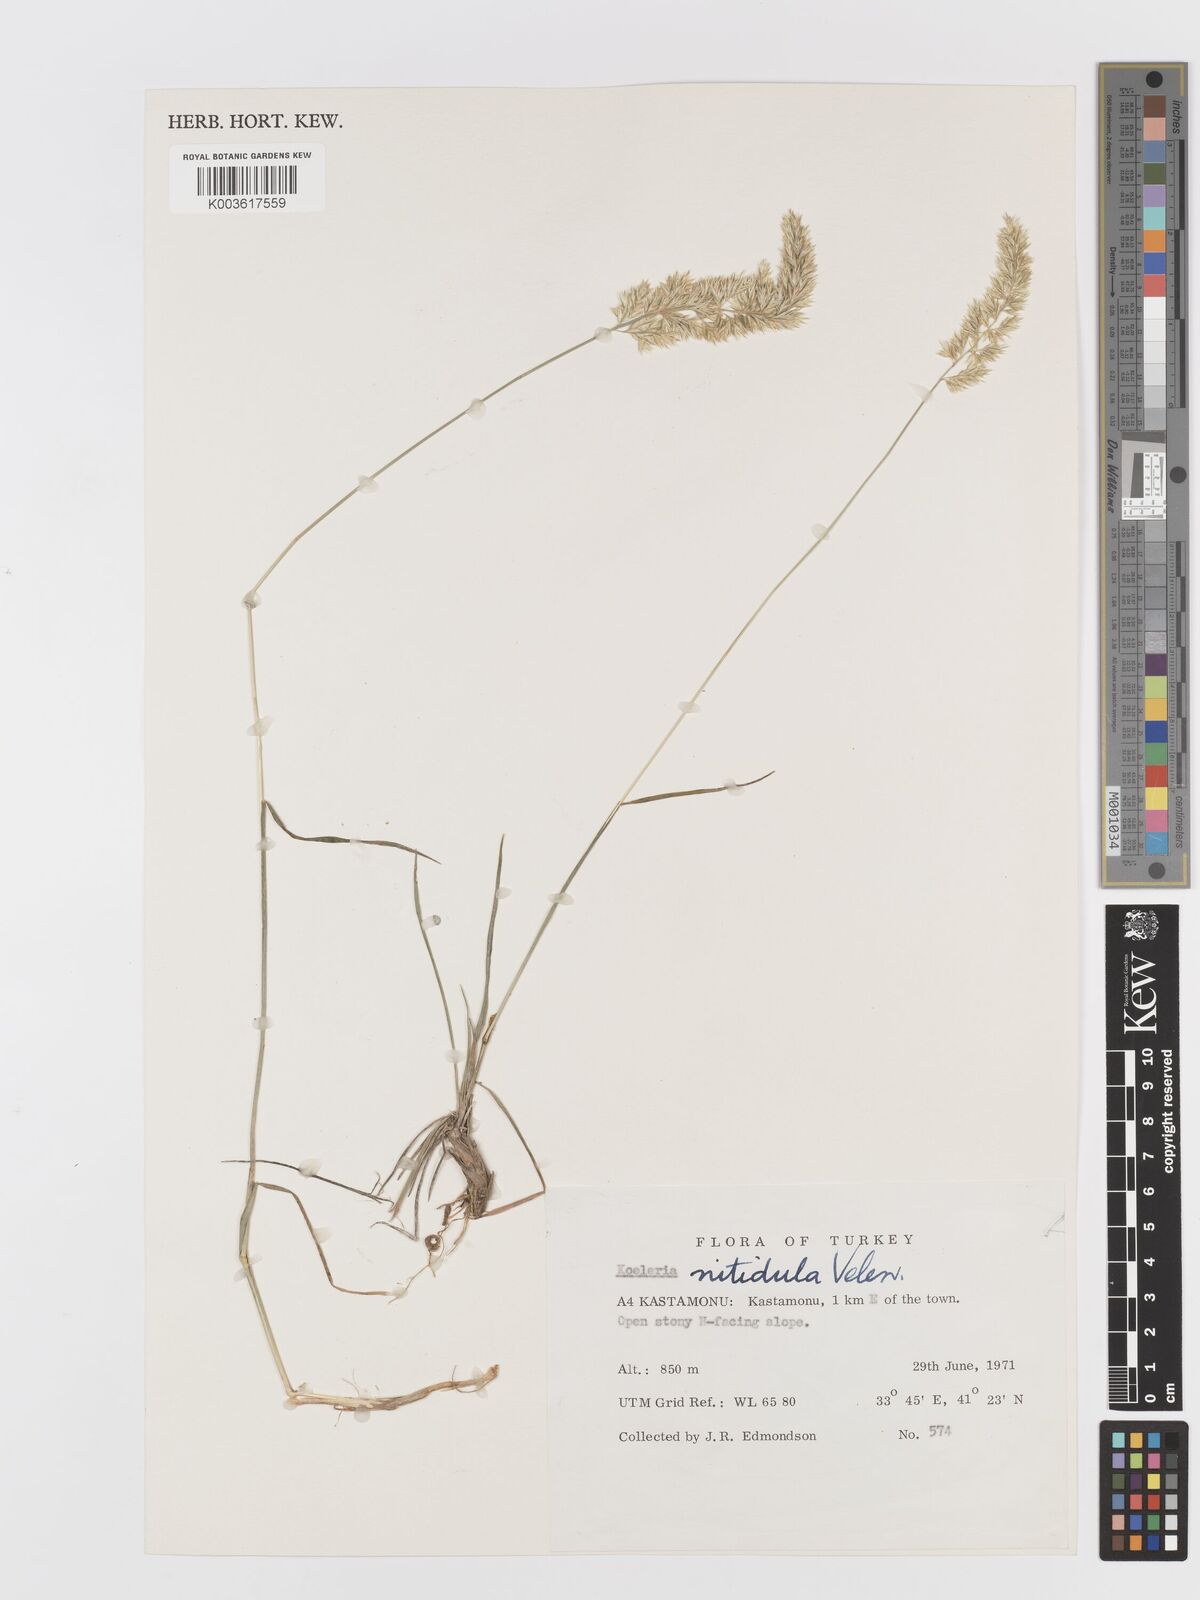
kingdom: Plantae
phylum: Tracheophyta
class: Liliopsida
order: Poales
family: Poaceae
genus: Koeleria
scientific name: Koeleria nitidula
